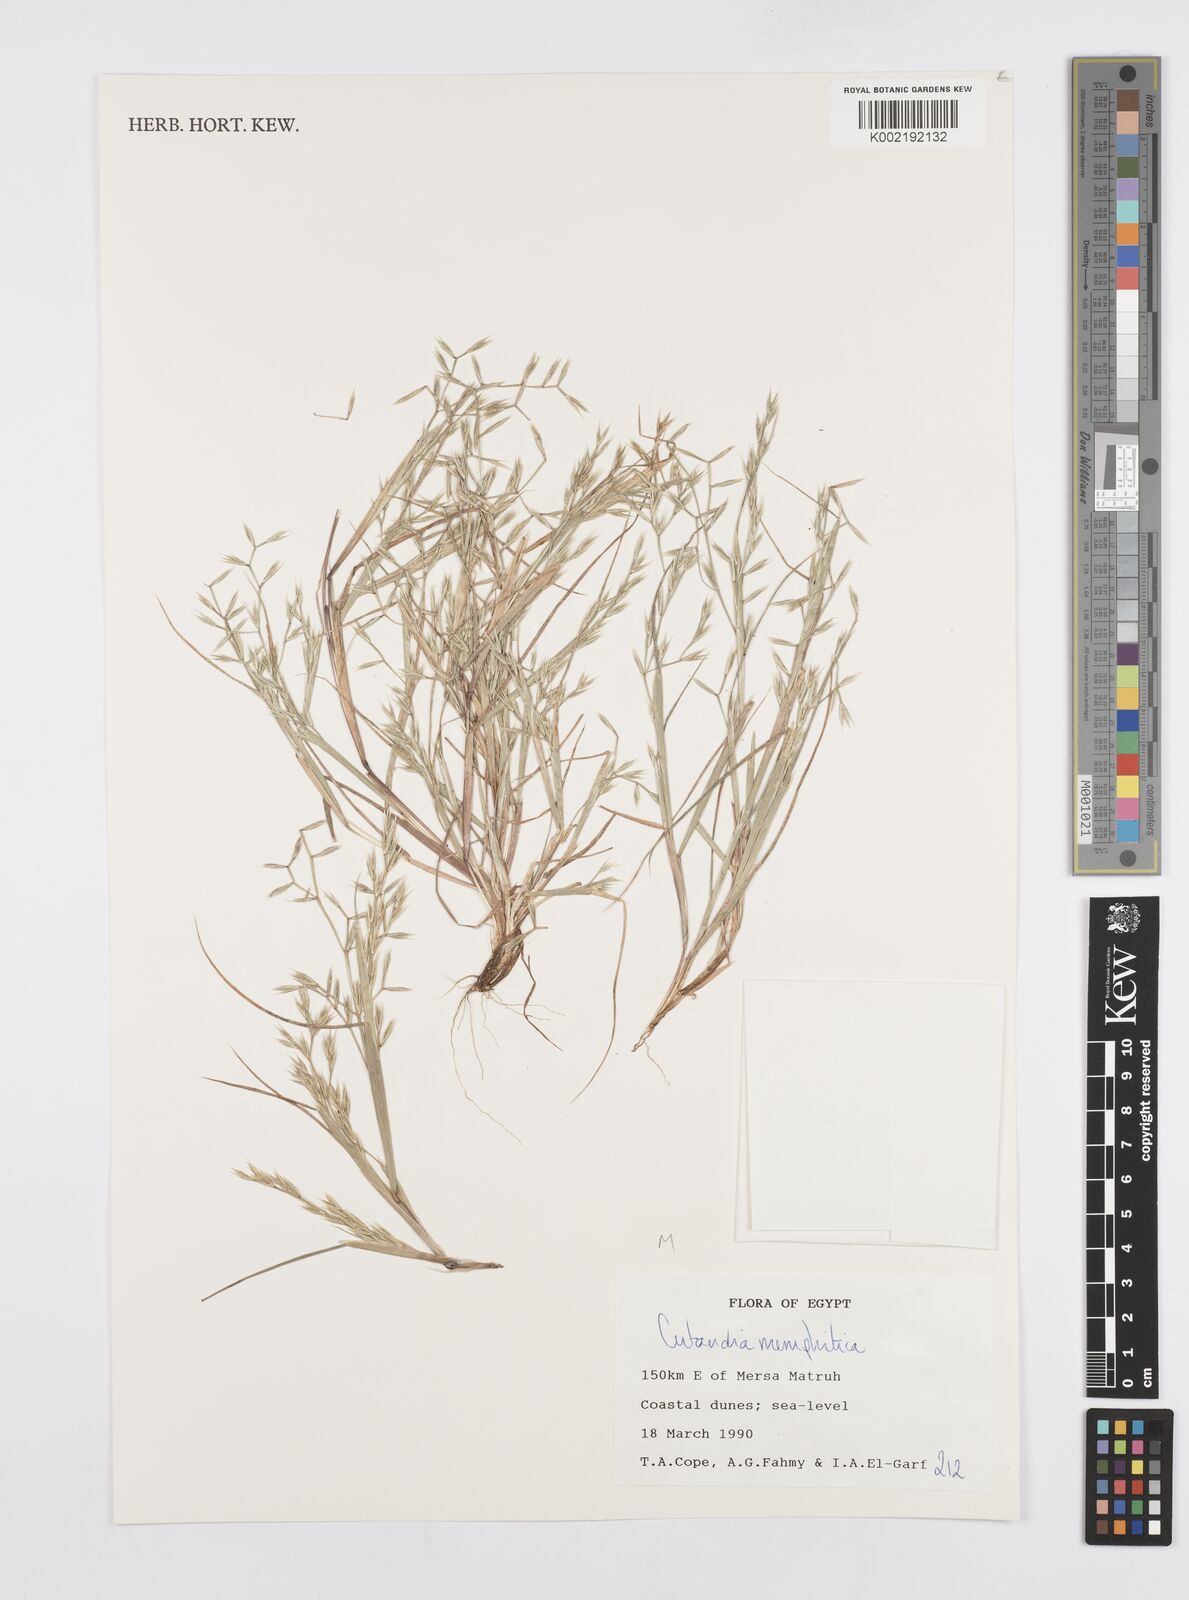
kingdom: Plantae
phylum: Tracheophyta
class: Liliopsida
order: Poales
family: Poaceae
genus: Cutandia
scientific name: Cutandia memphitica
